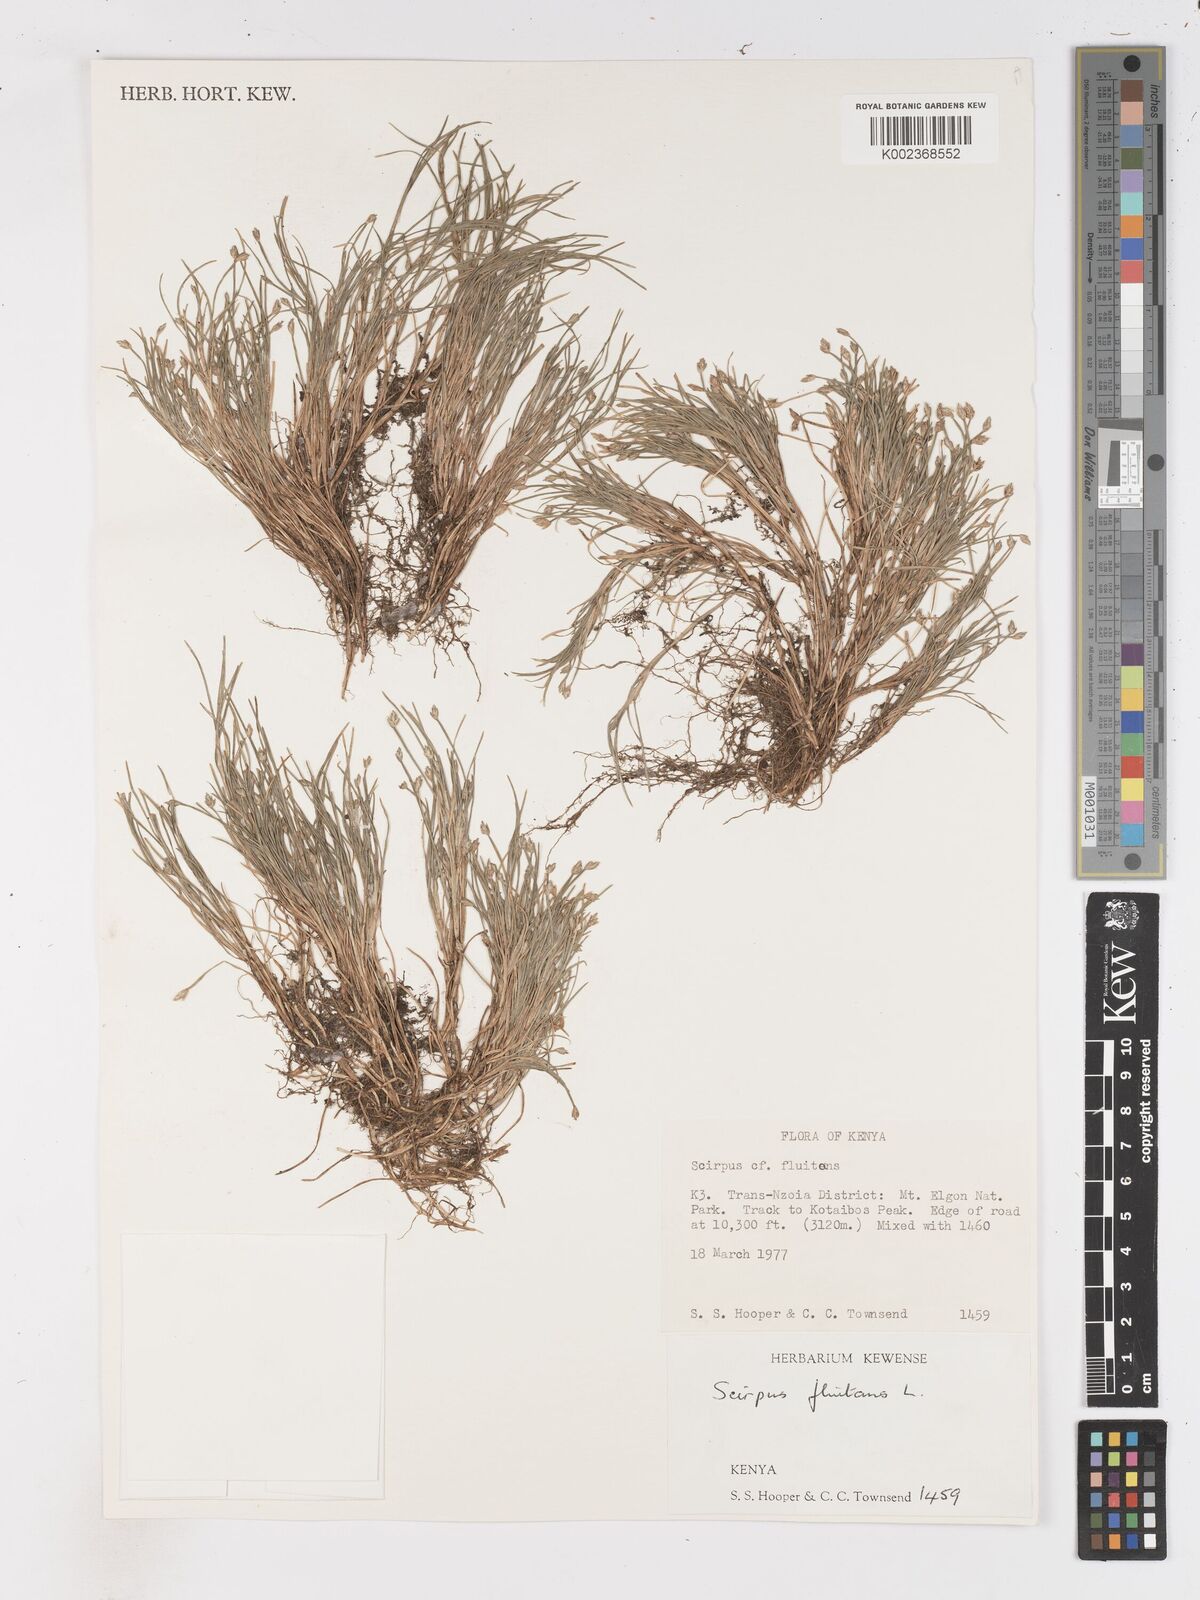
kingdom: Plantae
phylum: Tracheophyta
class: Liliopsida
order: Poales
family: Cyperaceae
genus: Isolepis
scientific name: Isolepis fluitans
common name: Floating club-rush
